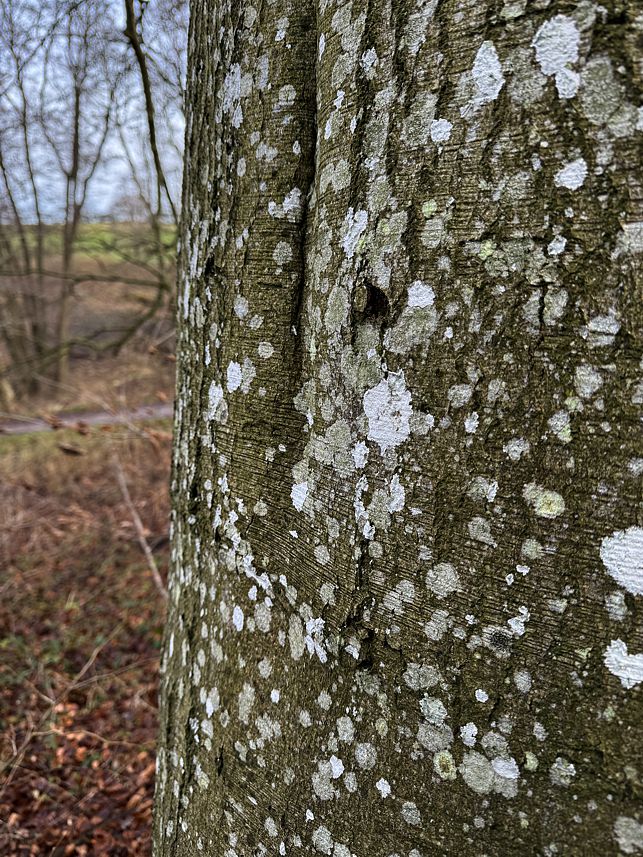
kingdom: Fungi
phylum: Ascomycota
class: Lecanoromycetes
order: Caliciales
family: Caliciaceae
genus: Buellia
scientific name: Buellia griseovirens
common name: grågrøn sortskivelav
